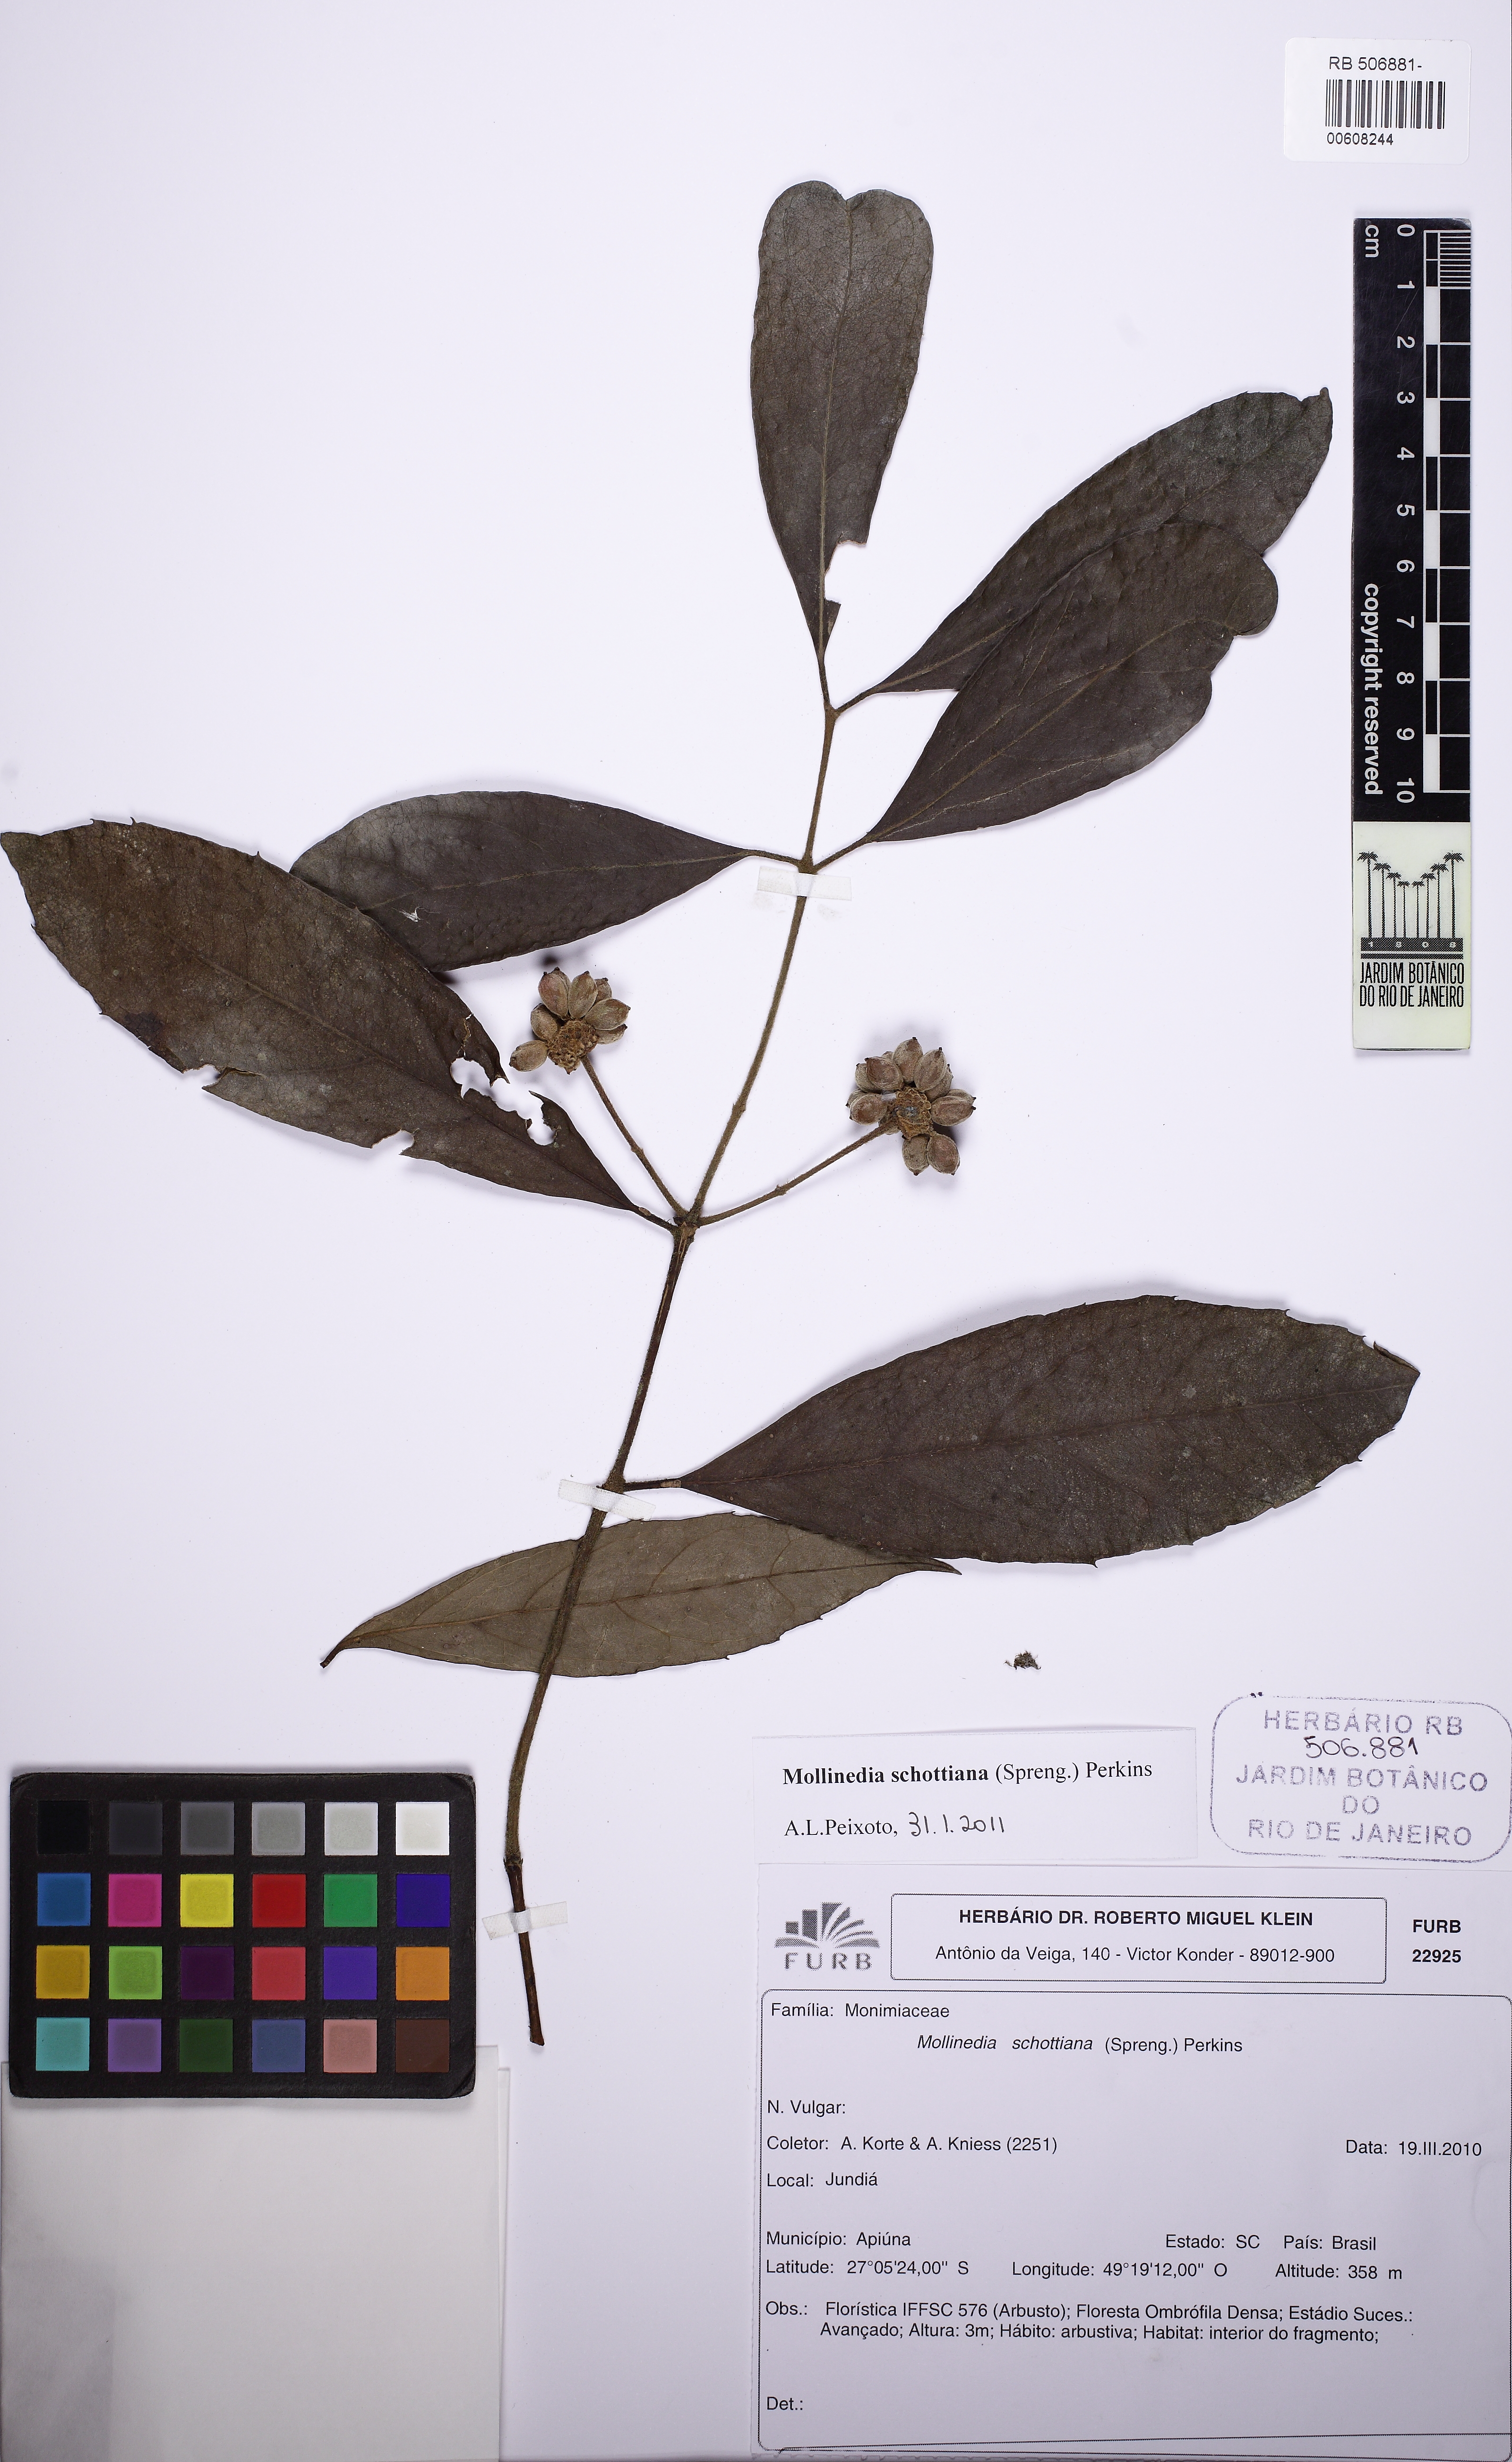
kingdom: Plantae
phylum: Tracheophyta
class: Magnoliopsida
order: Laurales
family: Monimiaceae
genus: Mollinedia
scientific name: Mollinedia umbellata
